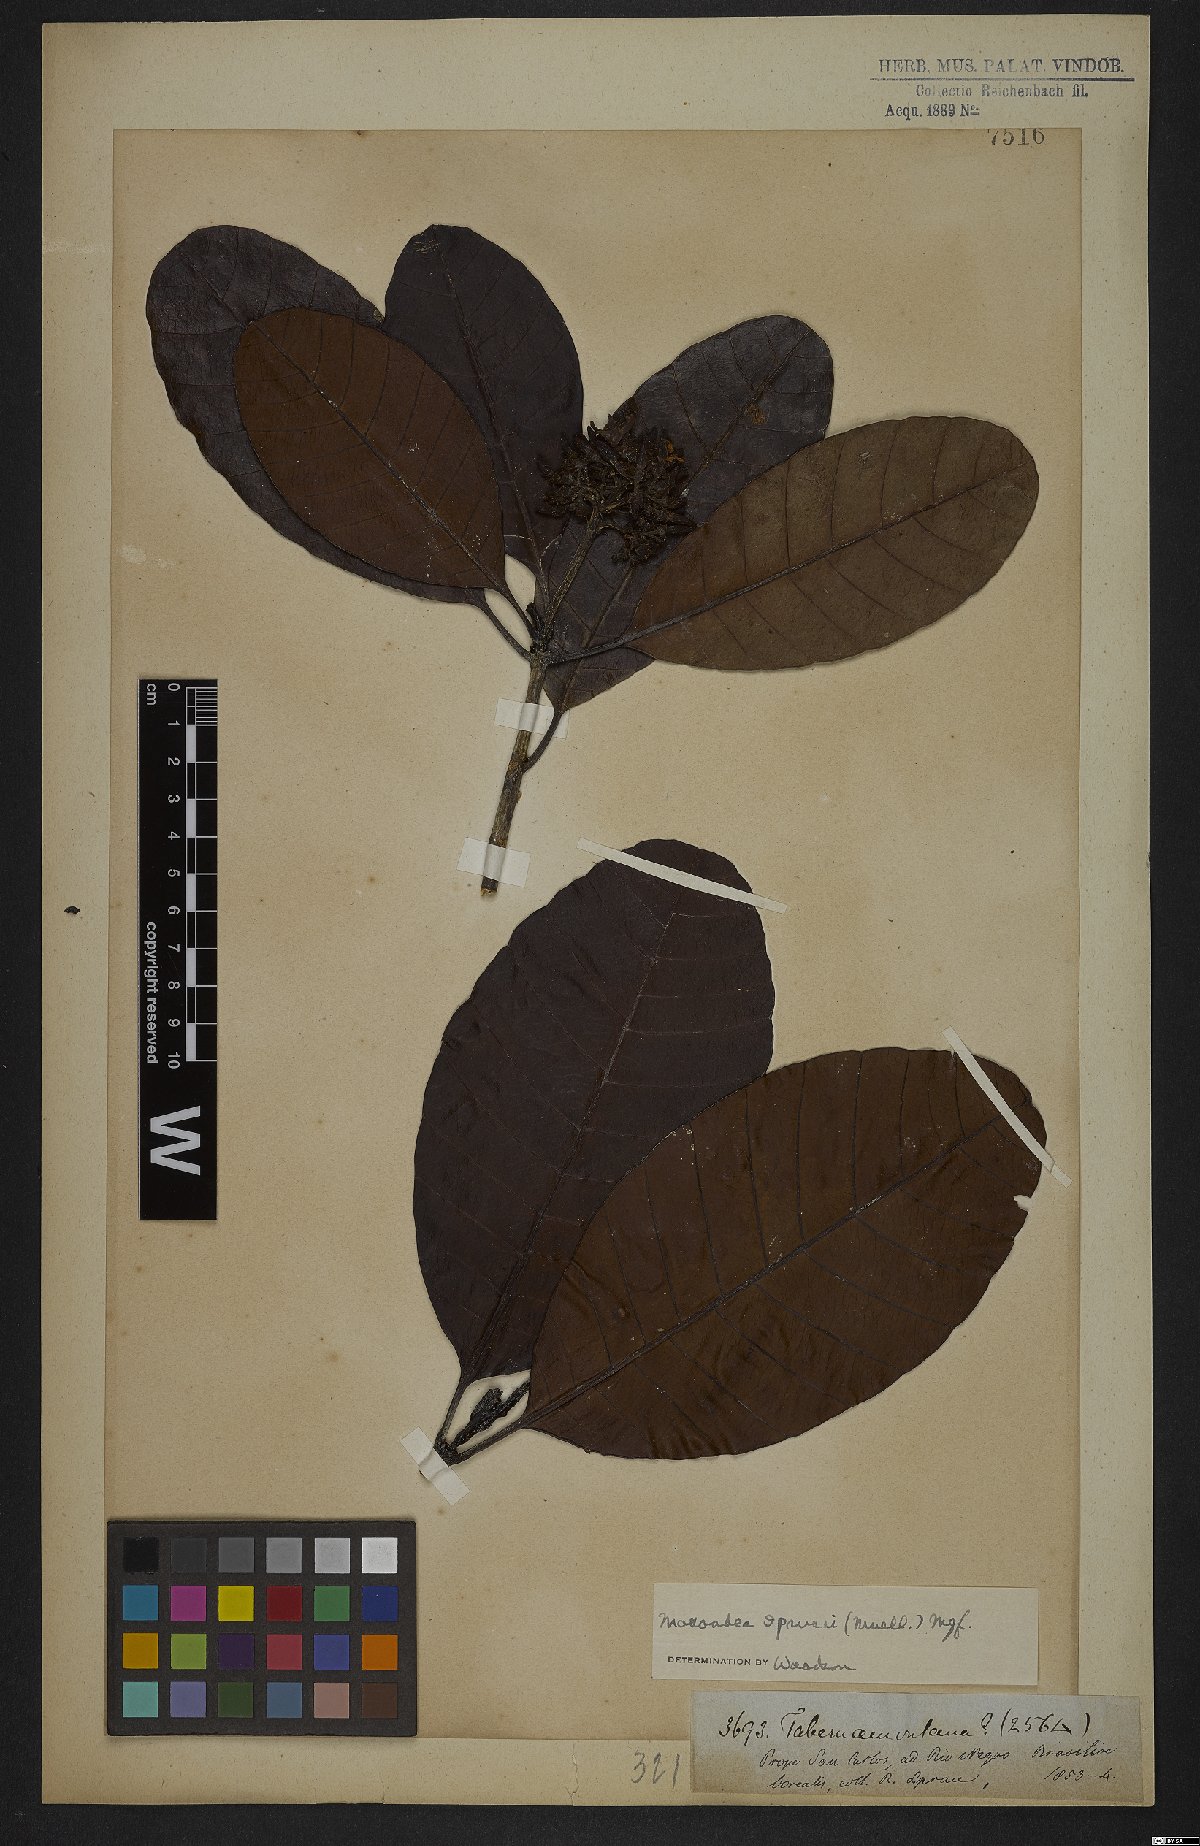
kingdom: Plantae
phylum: Tracheophyta
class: Magnoliopsida
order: Gentianales
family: Apocynaceae
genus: Macoubea
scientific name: Macoubea sprucei
